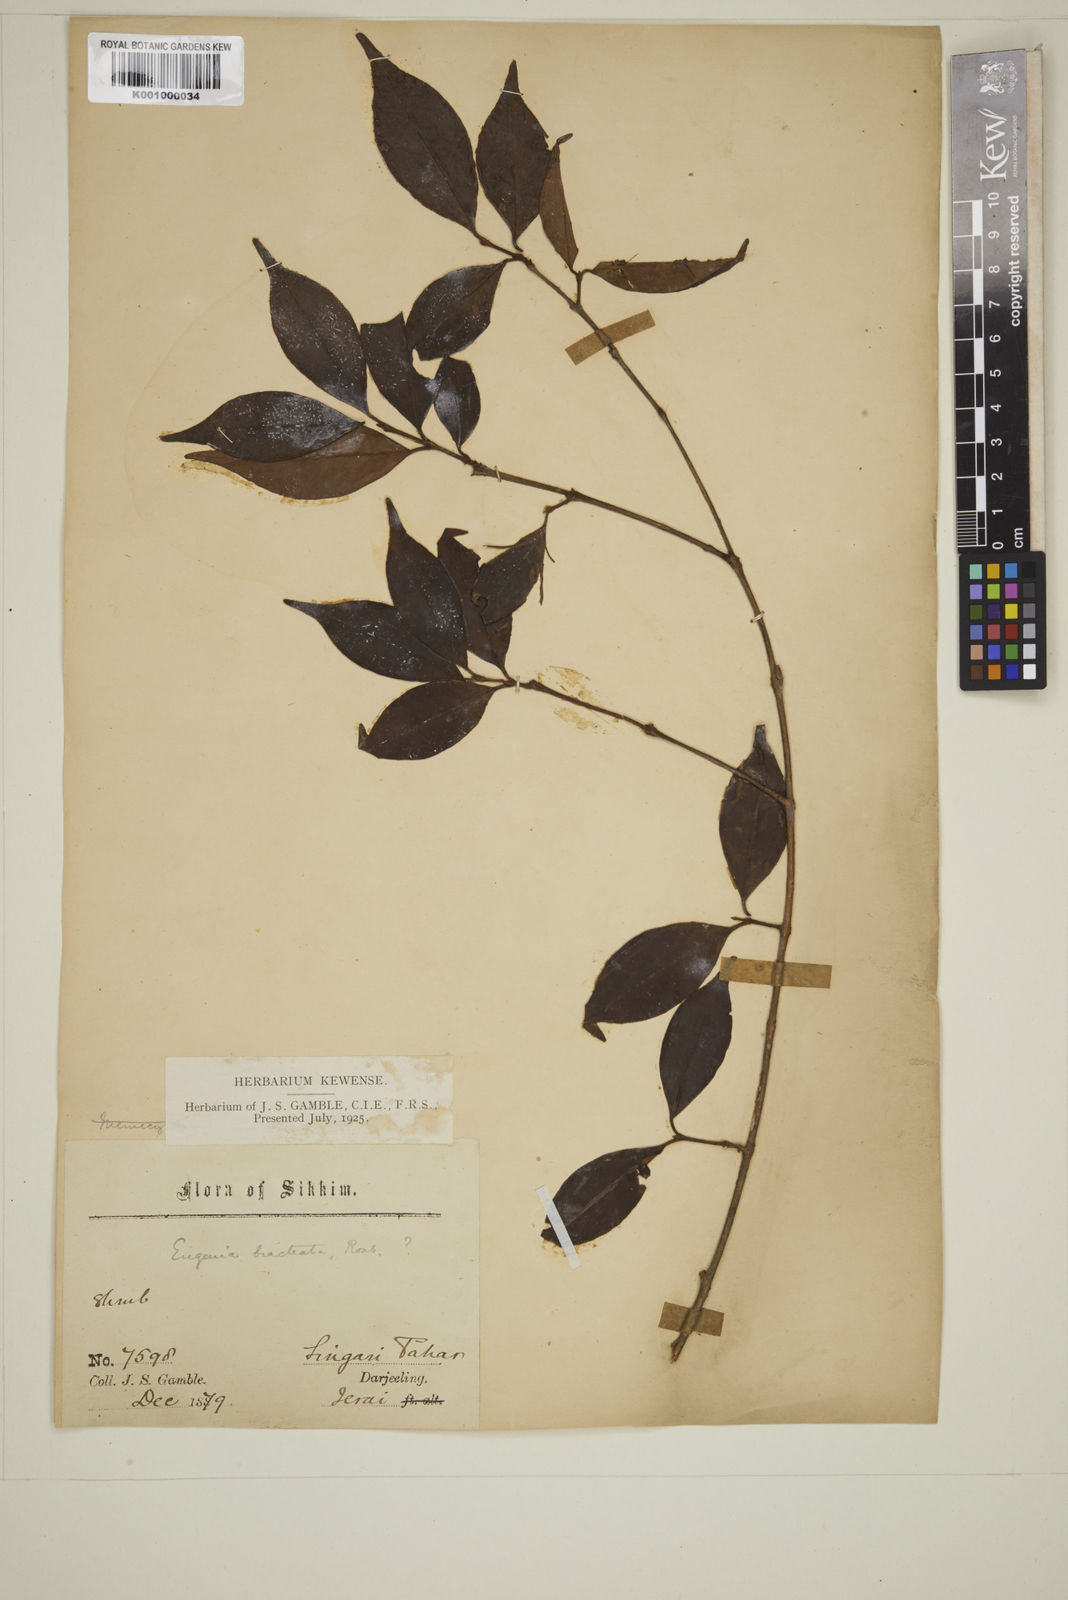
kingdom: Plantae
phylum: Tracheophyta
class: Magnoliopsida
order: Myrtales
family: Myrtaceae
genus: Myrcia
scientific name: Myrcia bracteata
